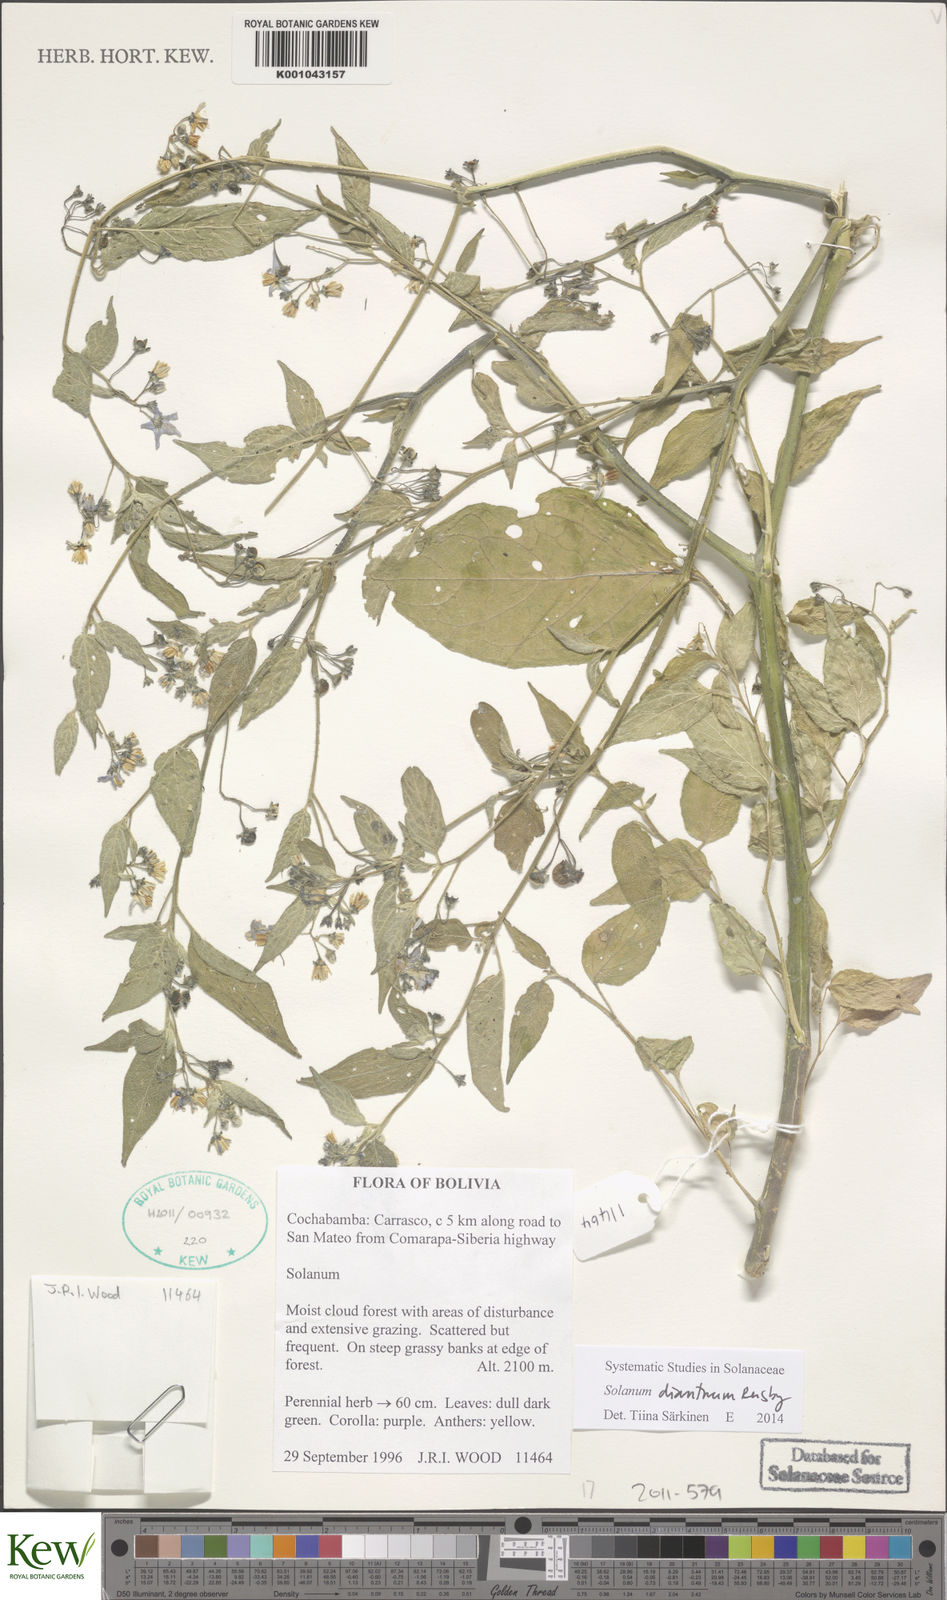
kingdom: Plantae
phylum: Tracheophyta
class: Magnoliopsida
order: Solanales
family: Solanaceae
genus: Solanum
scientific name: Solanum dianthum
